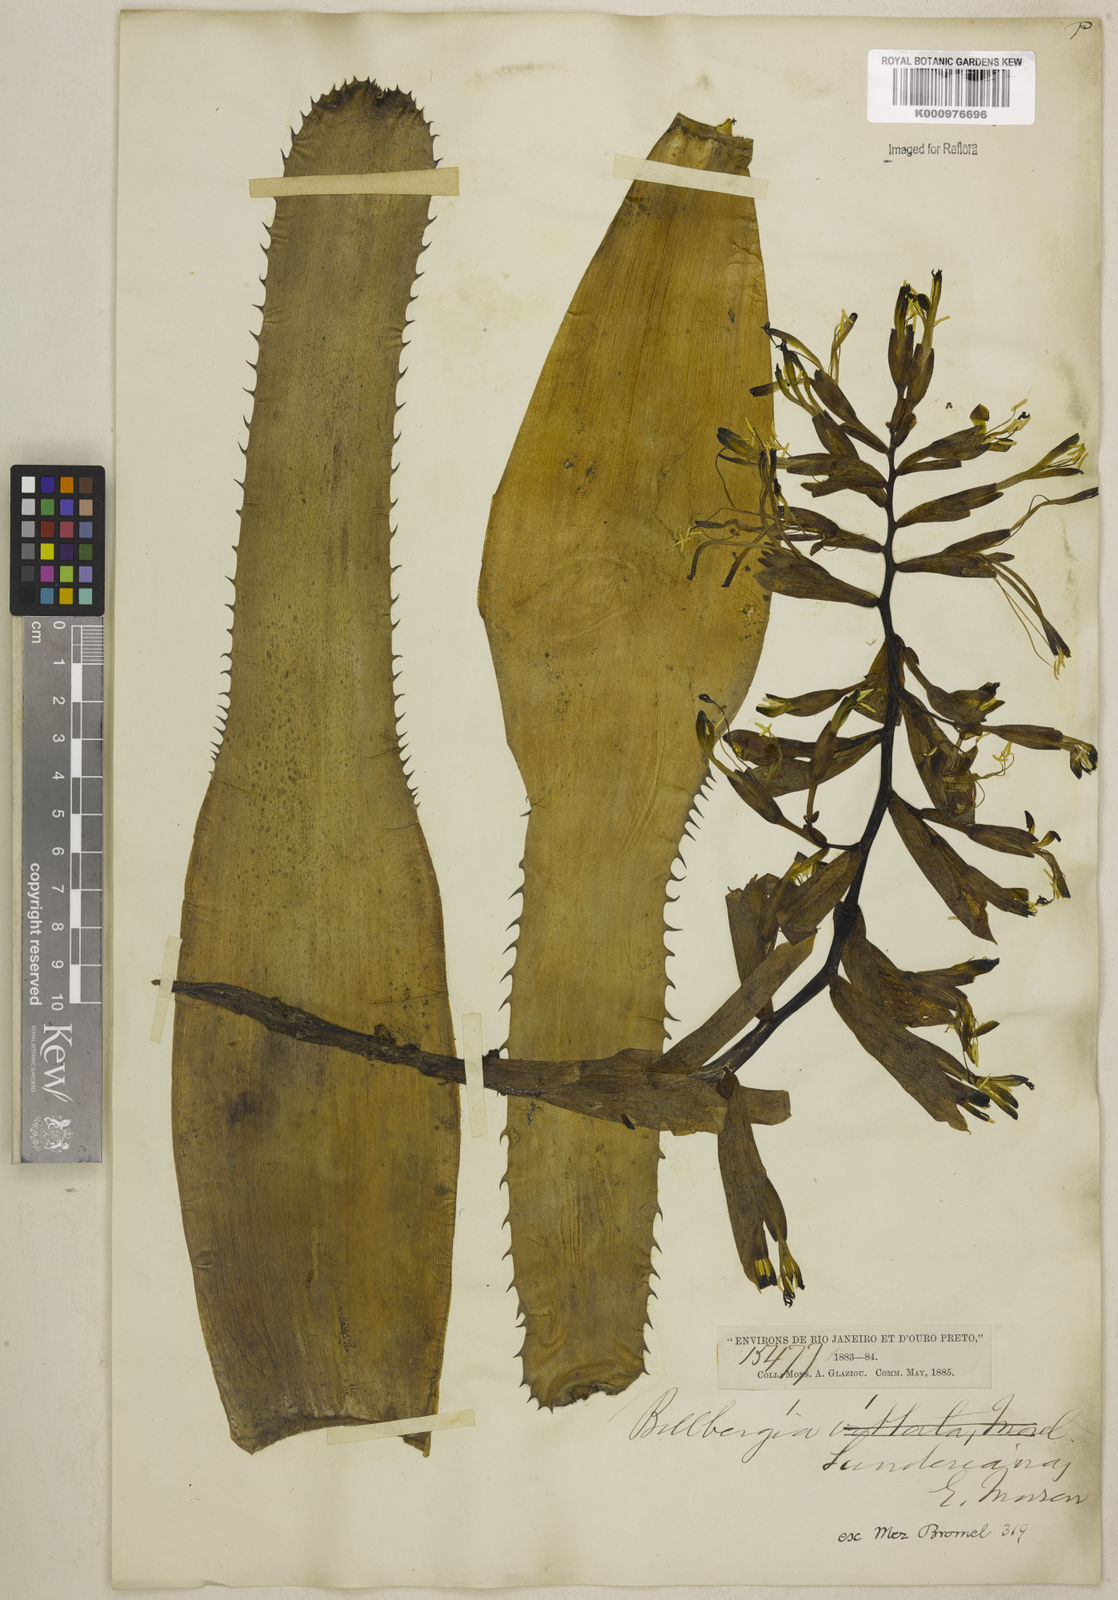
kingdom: Plantae
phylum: Tracheophyta
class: Liliopsida
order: Poales
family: Bromeliaceae
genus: Billbergia
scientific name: Billbergia sanderiana
